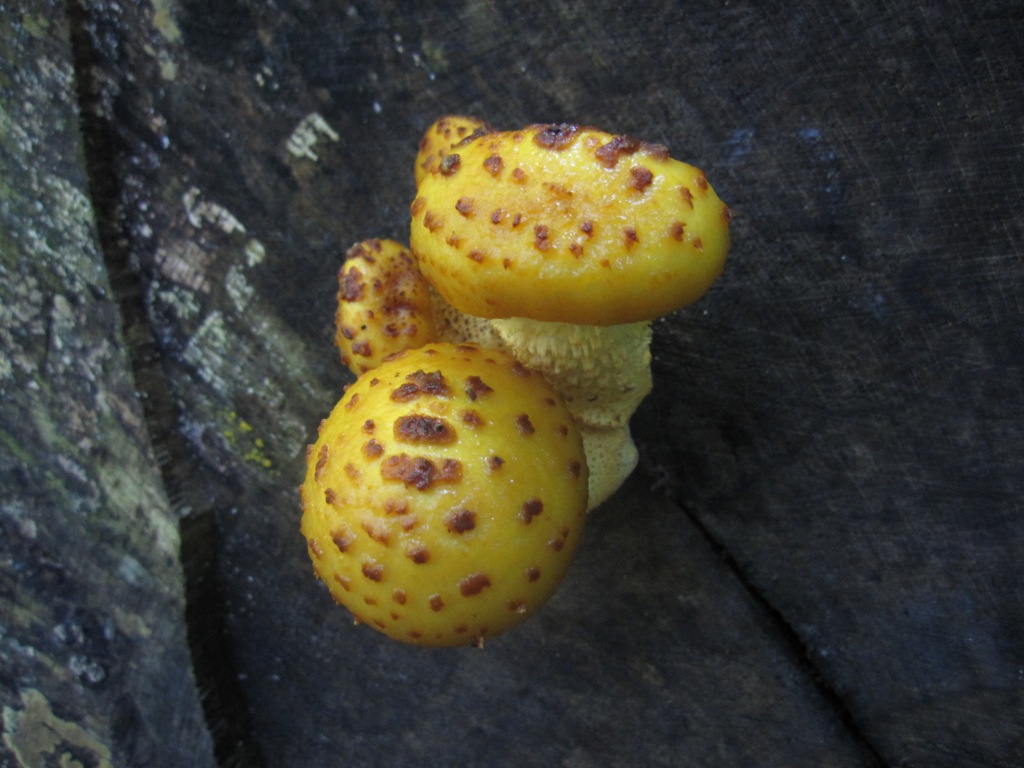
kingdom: Fungi
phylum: Basidiomycota
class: Agaricomycetes
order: Agaricales
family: Strophariaceae
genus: Pholiota
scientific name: Pholiota adiposa
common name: højtsiddende skælhat
